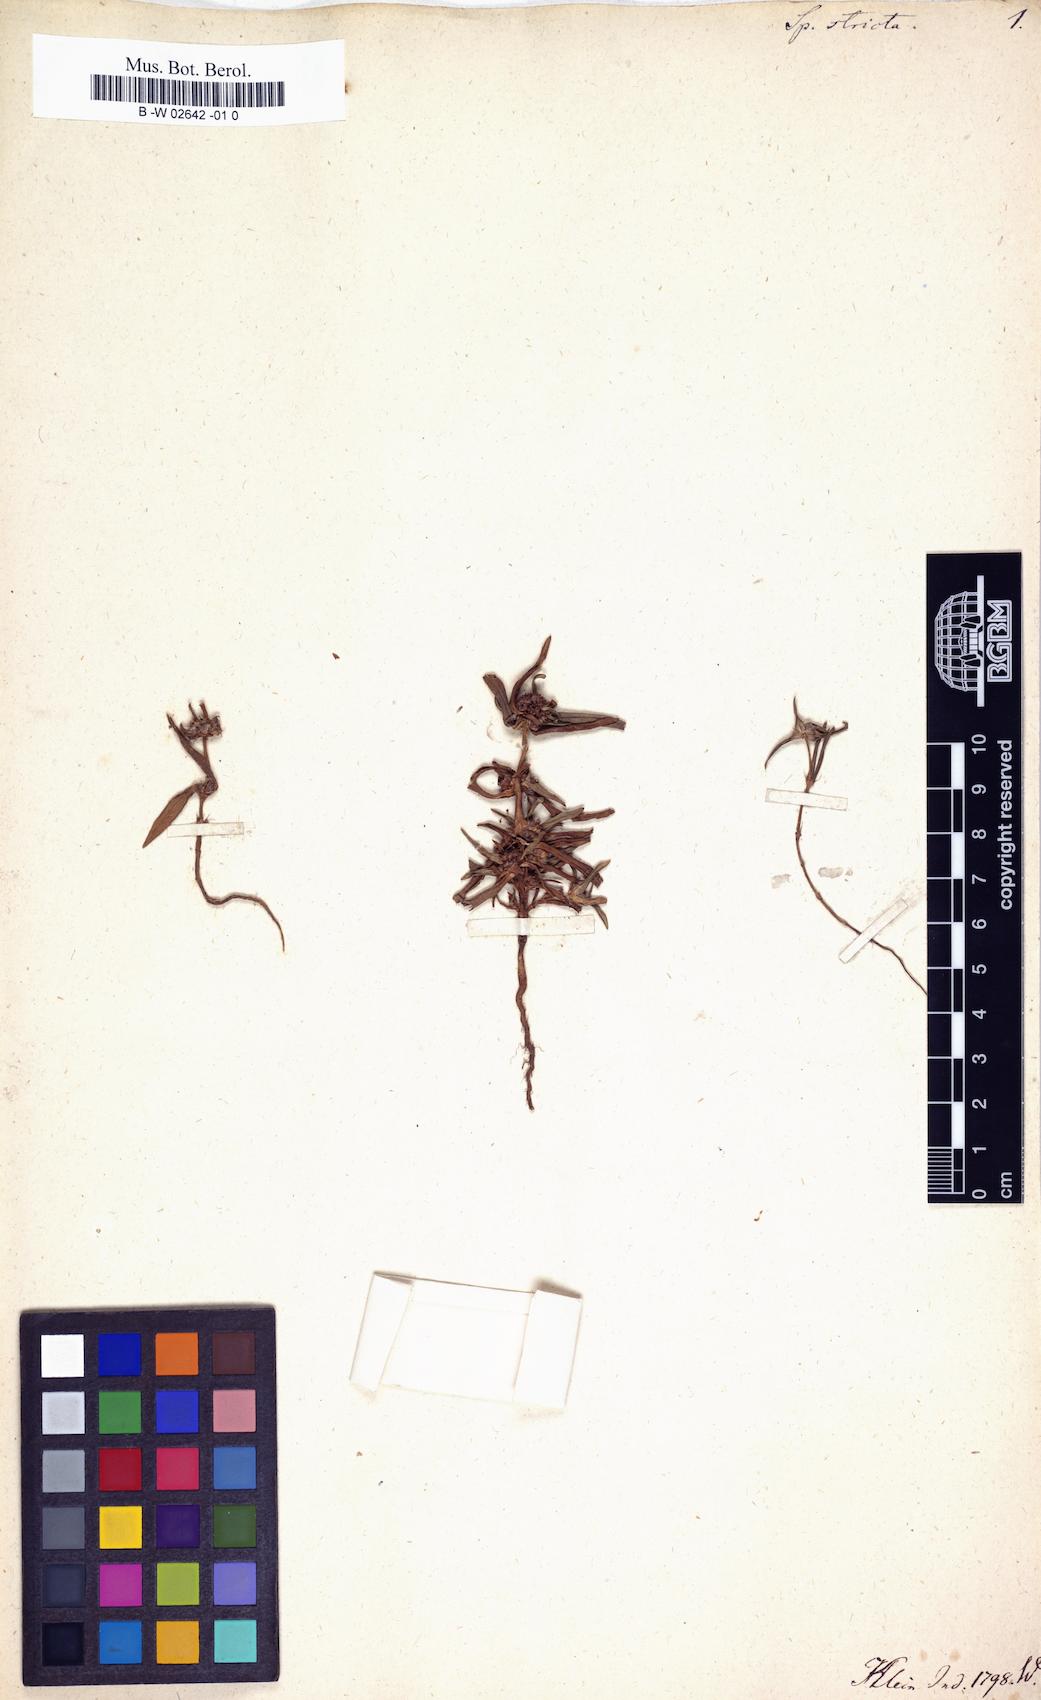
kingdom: Plantae
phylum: Tracheophyta
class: Magnoliopsida
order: Gentianales
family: Rubiaceae
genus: Spermacoce
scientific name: Spermacoce ocymoides
